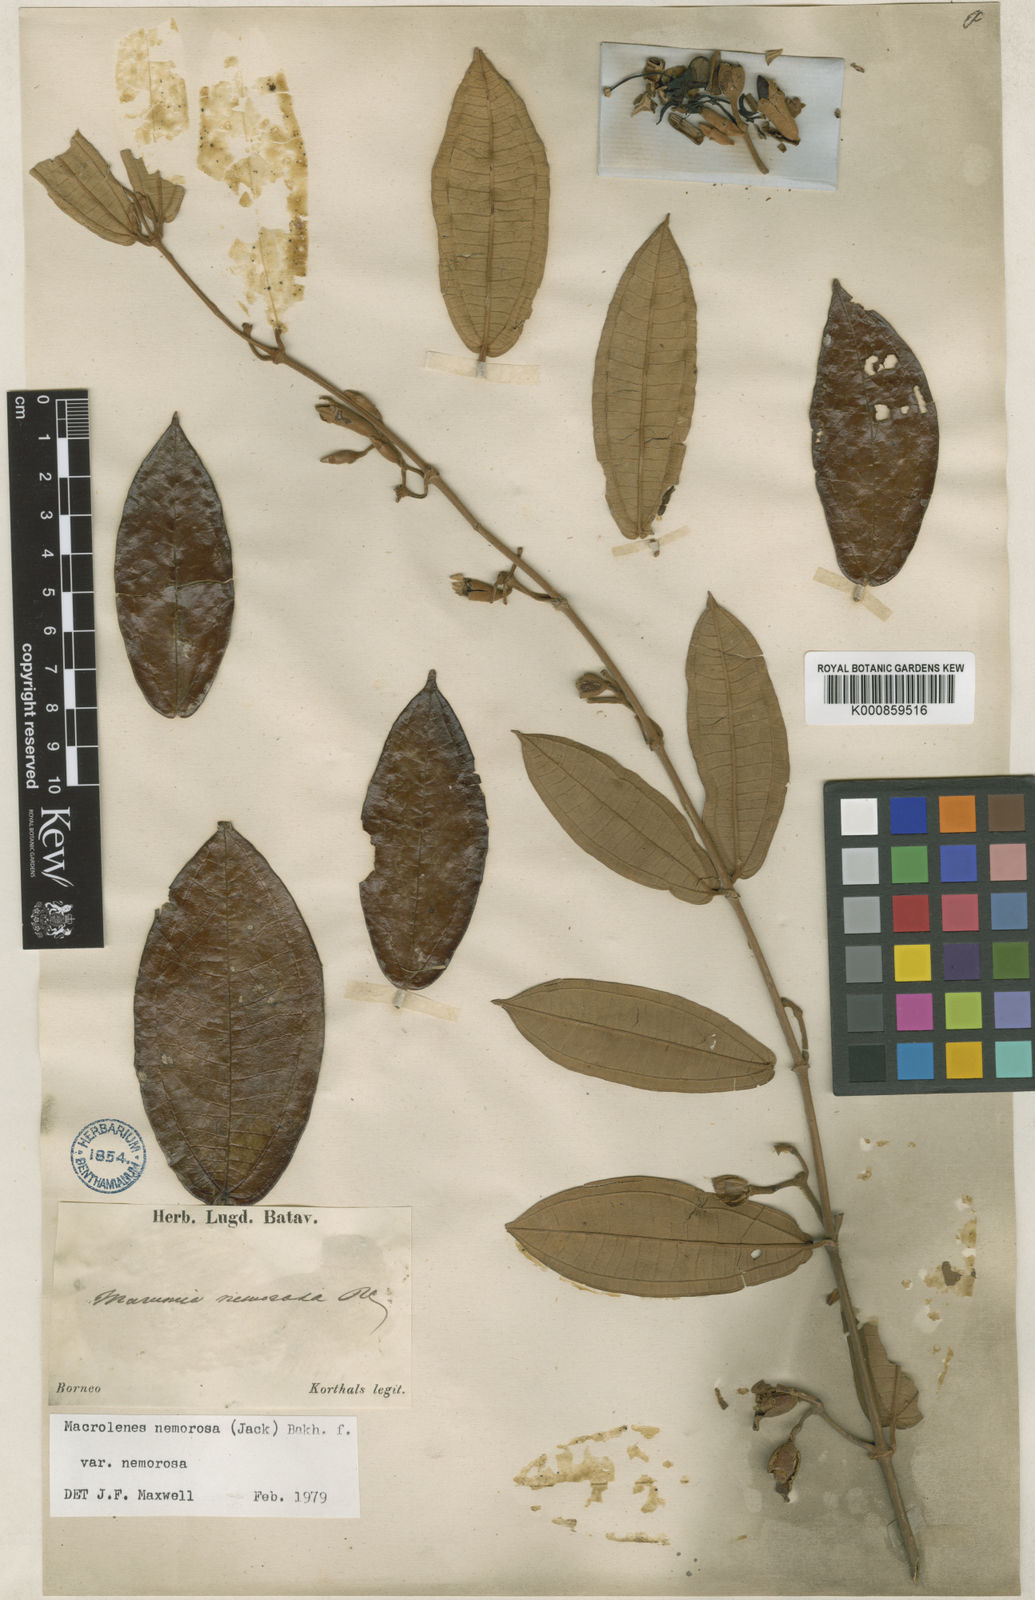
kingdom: Plantae
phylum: Tracheophyta
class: Magnoliopsida
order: Myrtales
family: Melastomataceae
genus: Macrolenes
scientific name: Macrolenes nemorosa
